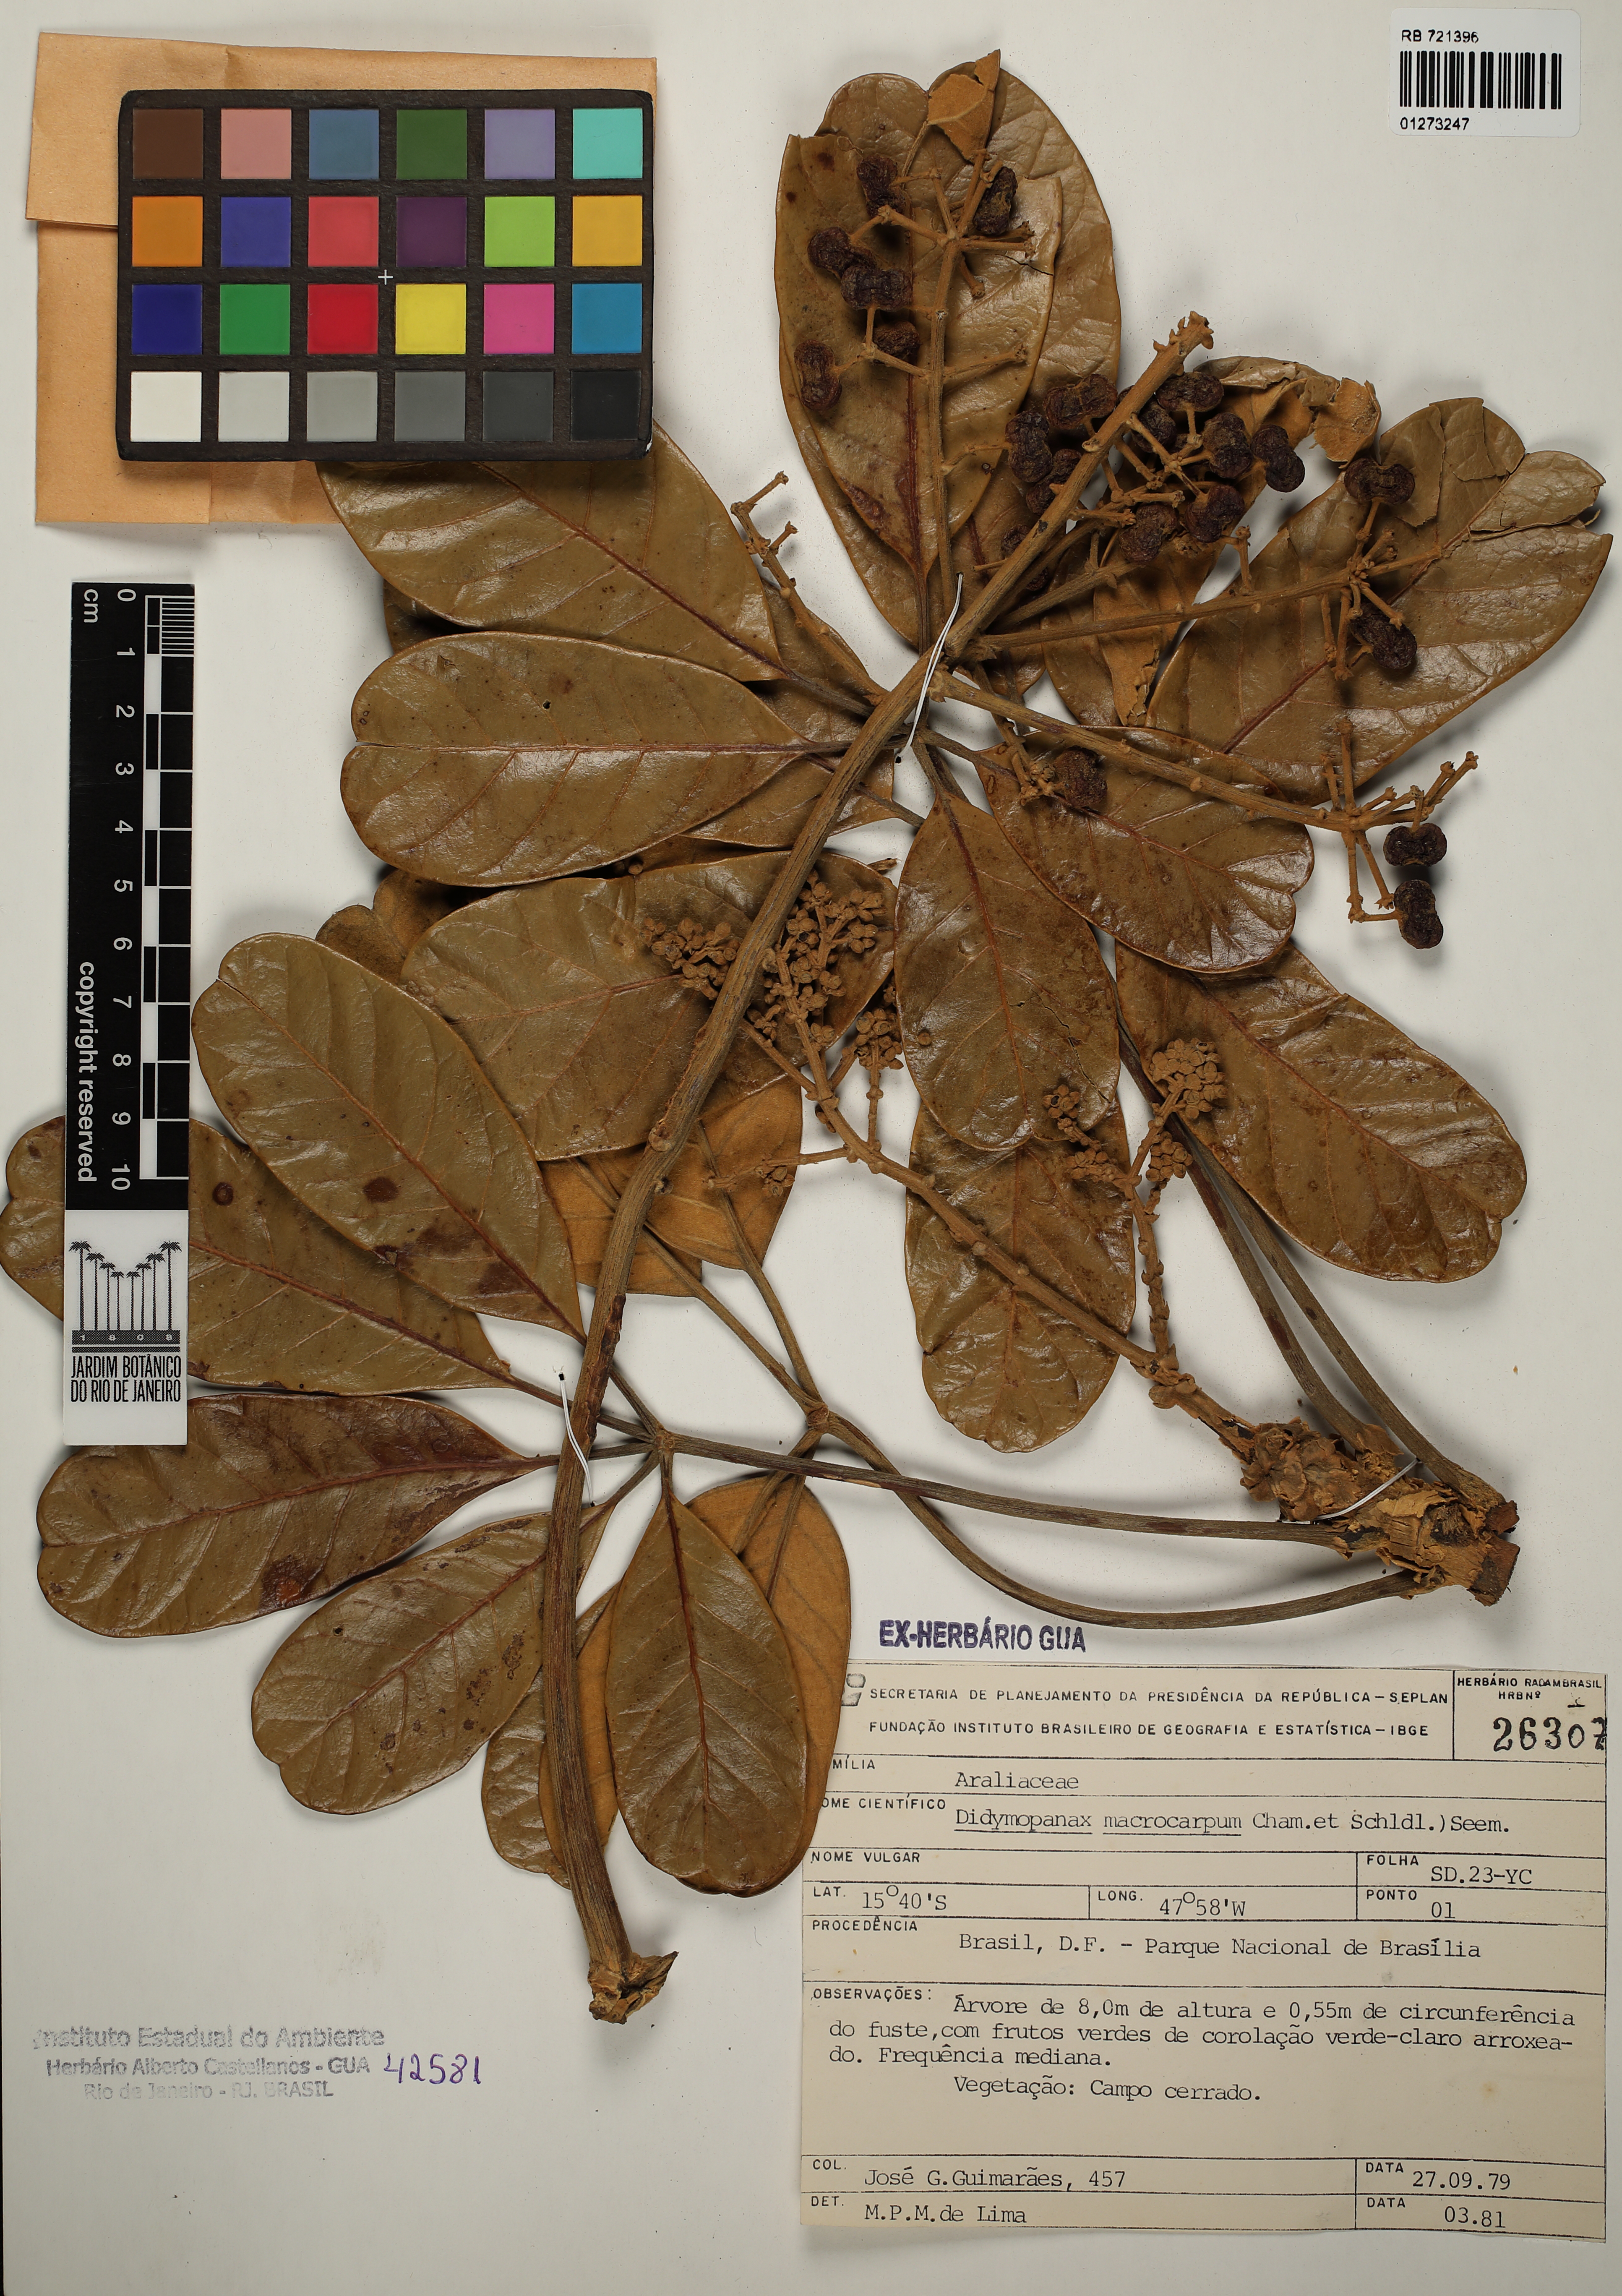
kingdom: Plantae
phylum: Tracheophyta
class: Magnoliopsida
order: Apiales
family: Araliaceae
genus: Didymopanax
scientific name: Didymopanax macrocarpus
